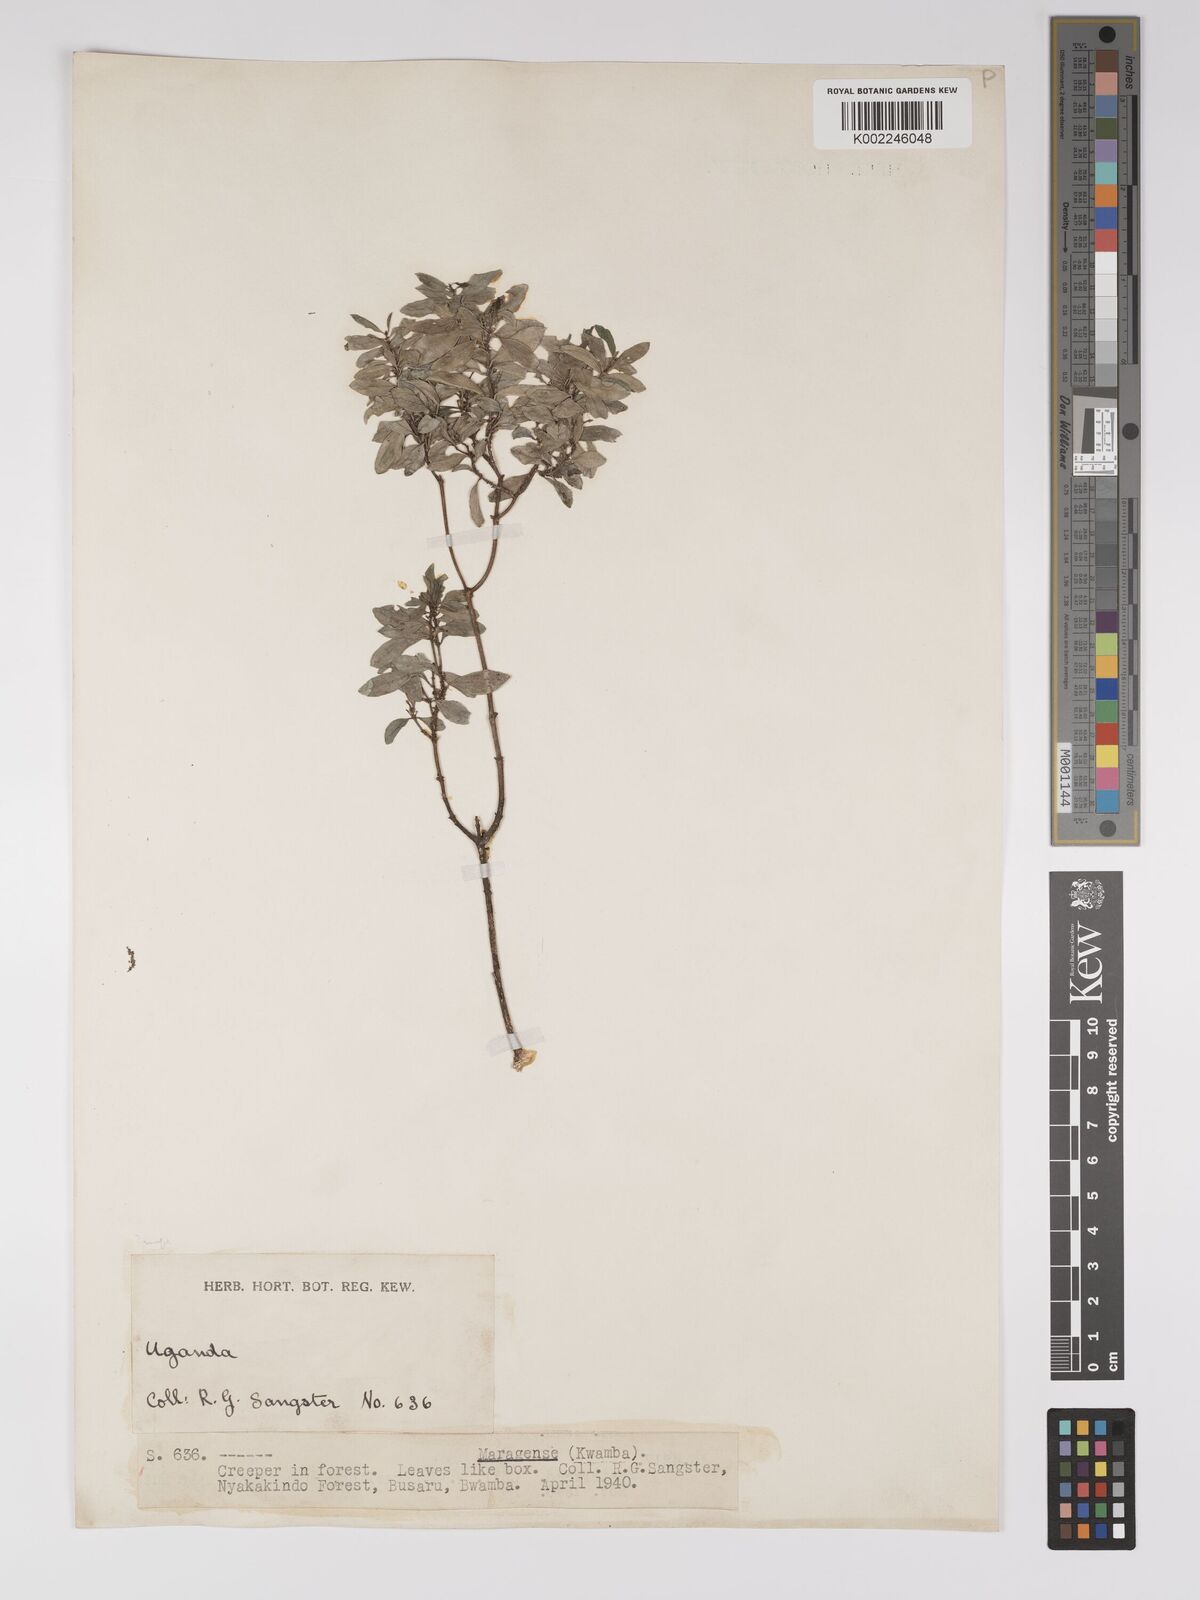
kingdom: Plantae
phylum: Tracheophyta
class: Magnoliopsida
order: Malpighiales
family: Euphorbiaceae
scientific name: Euphorbiaceae
